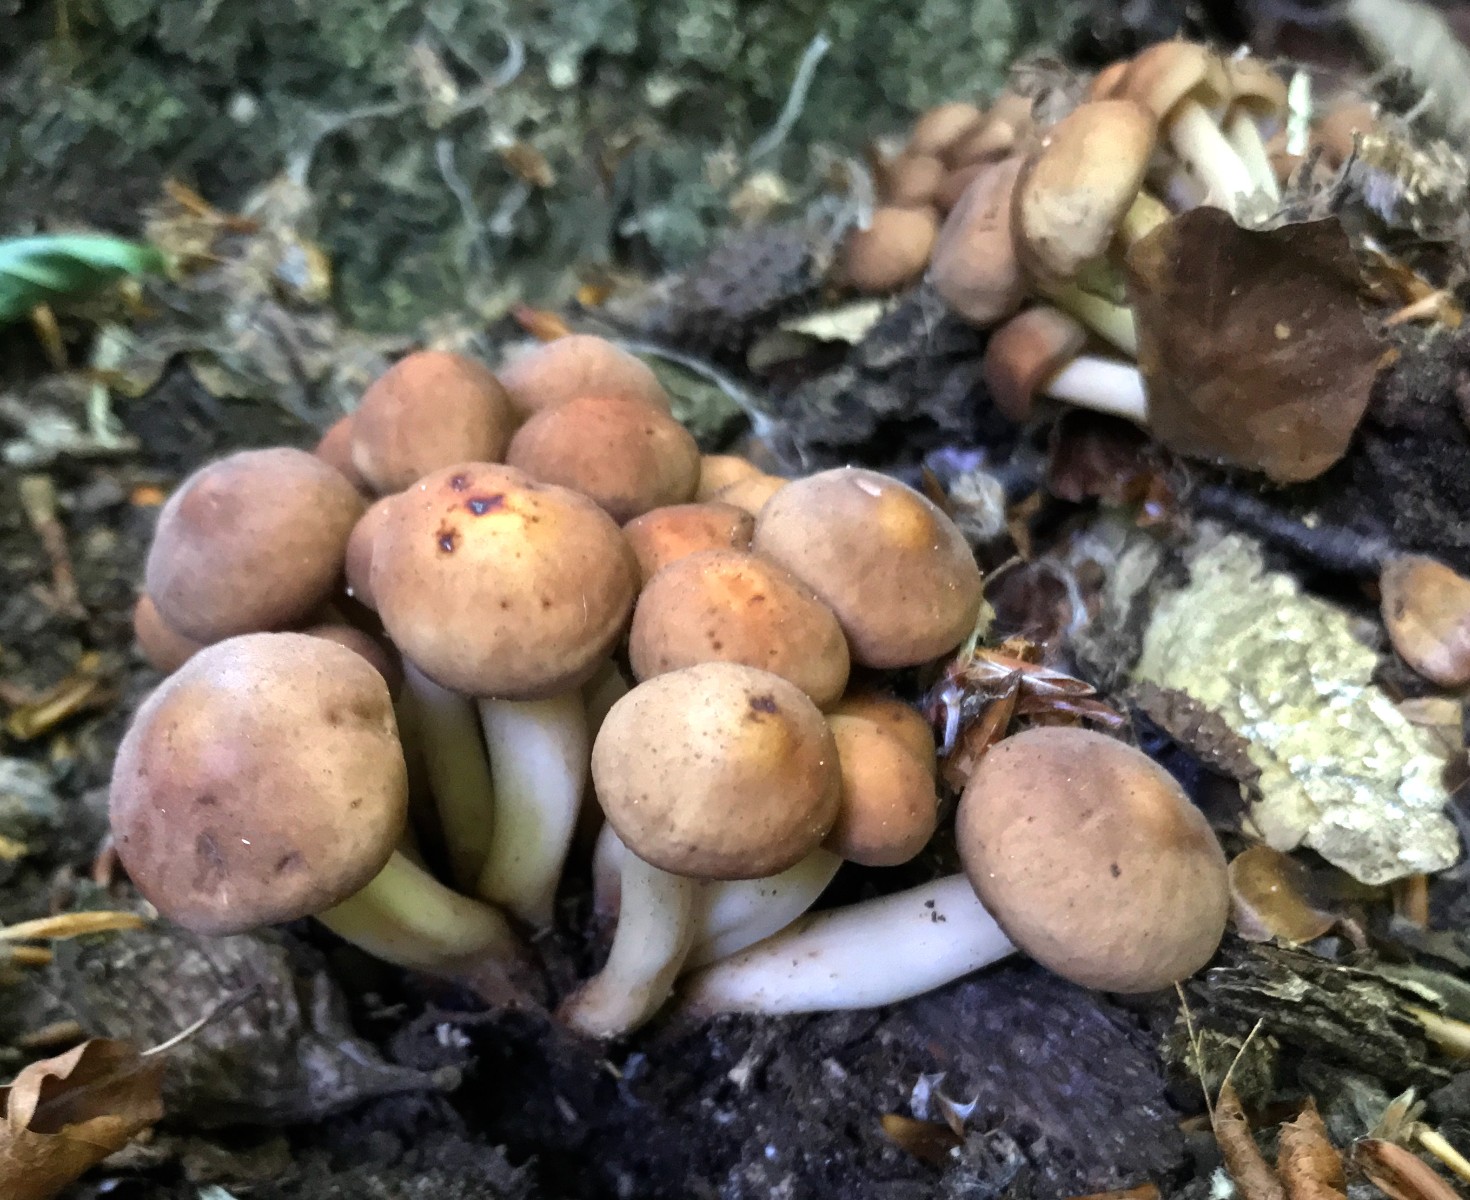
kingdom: Fungi
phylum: Basidiomycota
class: Agaricomycetes
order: Agaricales
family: Omphalotaceae
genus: Gymnopus
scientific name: Gymnopus fusipes
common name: tenstokket fladhat
